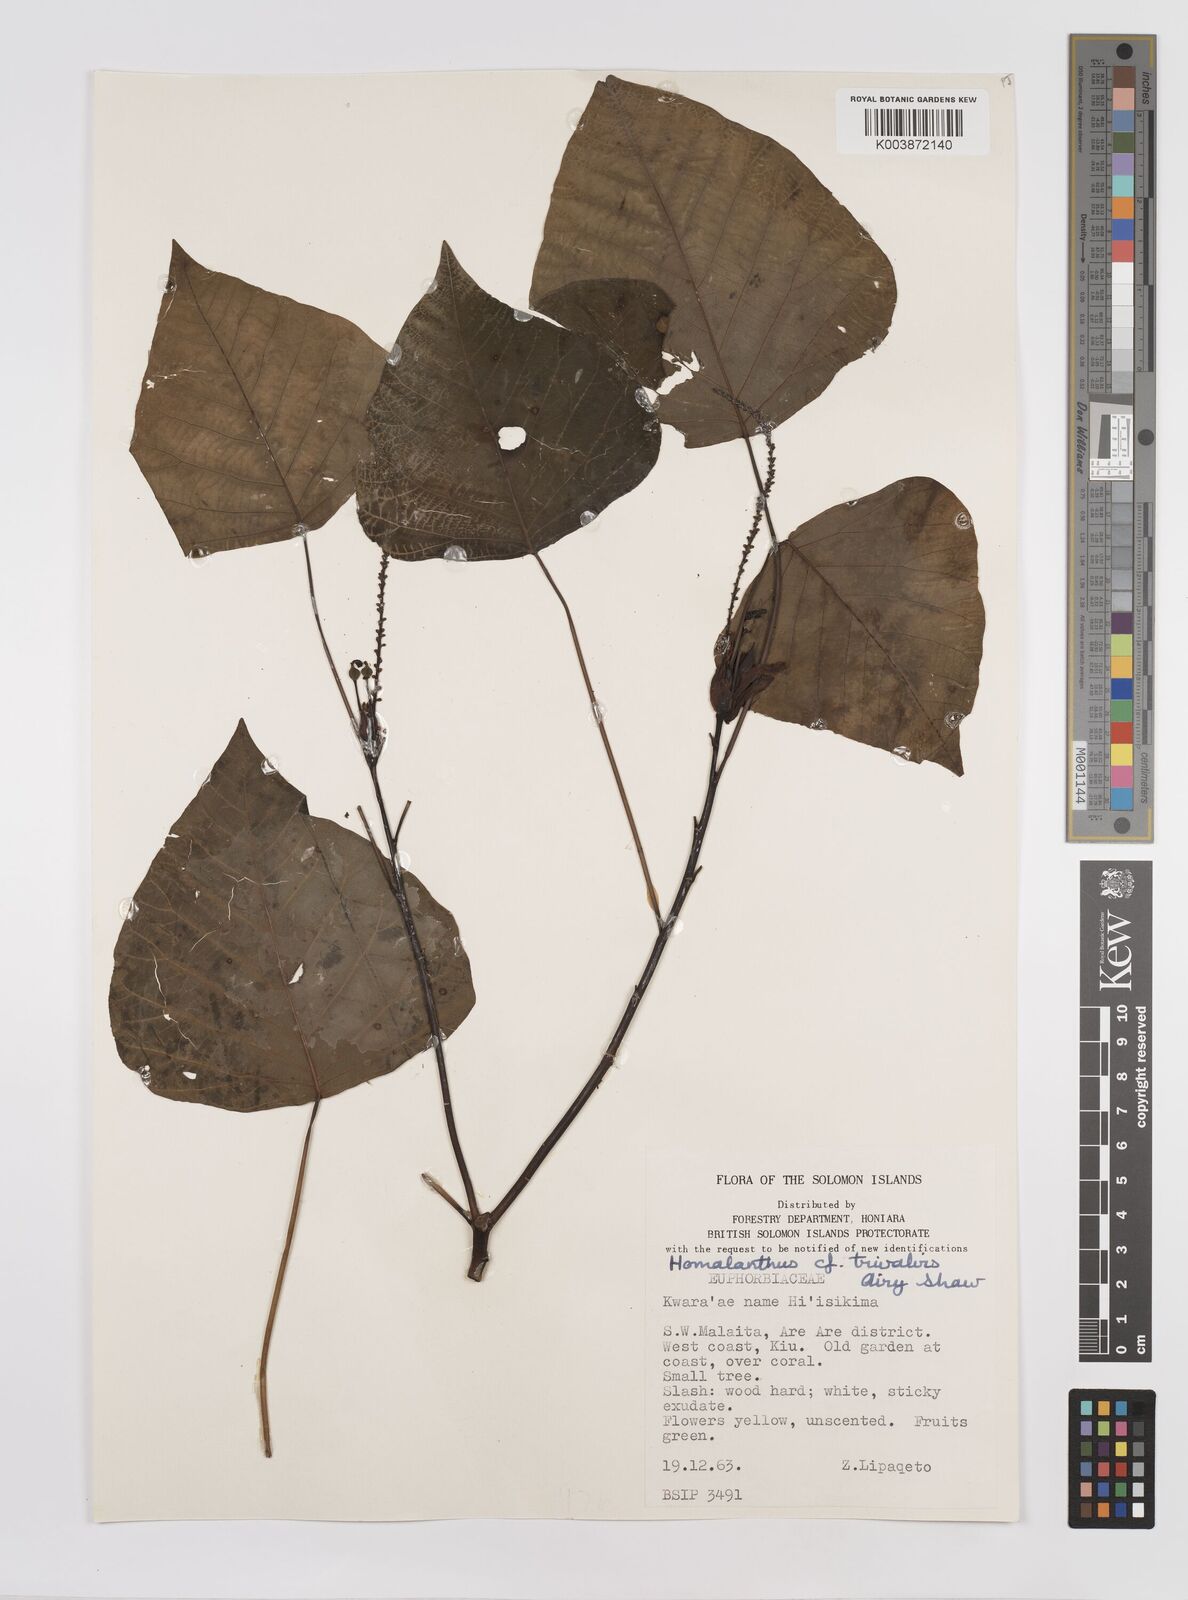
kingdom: Plantae
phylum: Tracheophyta
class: Magnoliopsida
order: Malpighiales
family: Euphorbiaceae
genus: Homalanthus
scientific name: Homalanthus trivalvis
